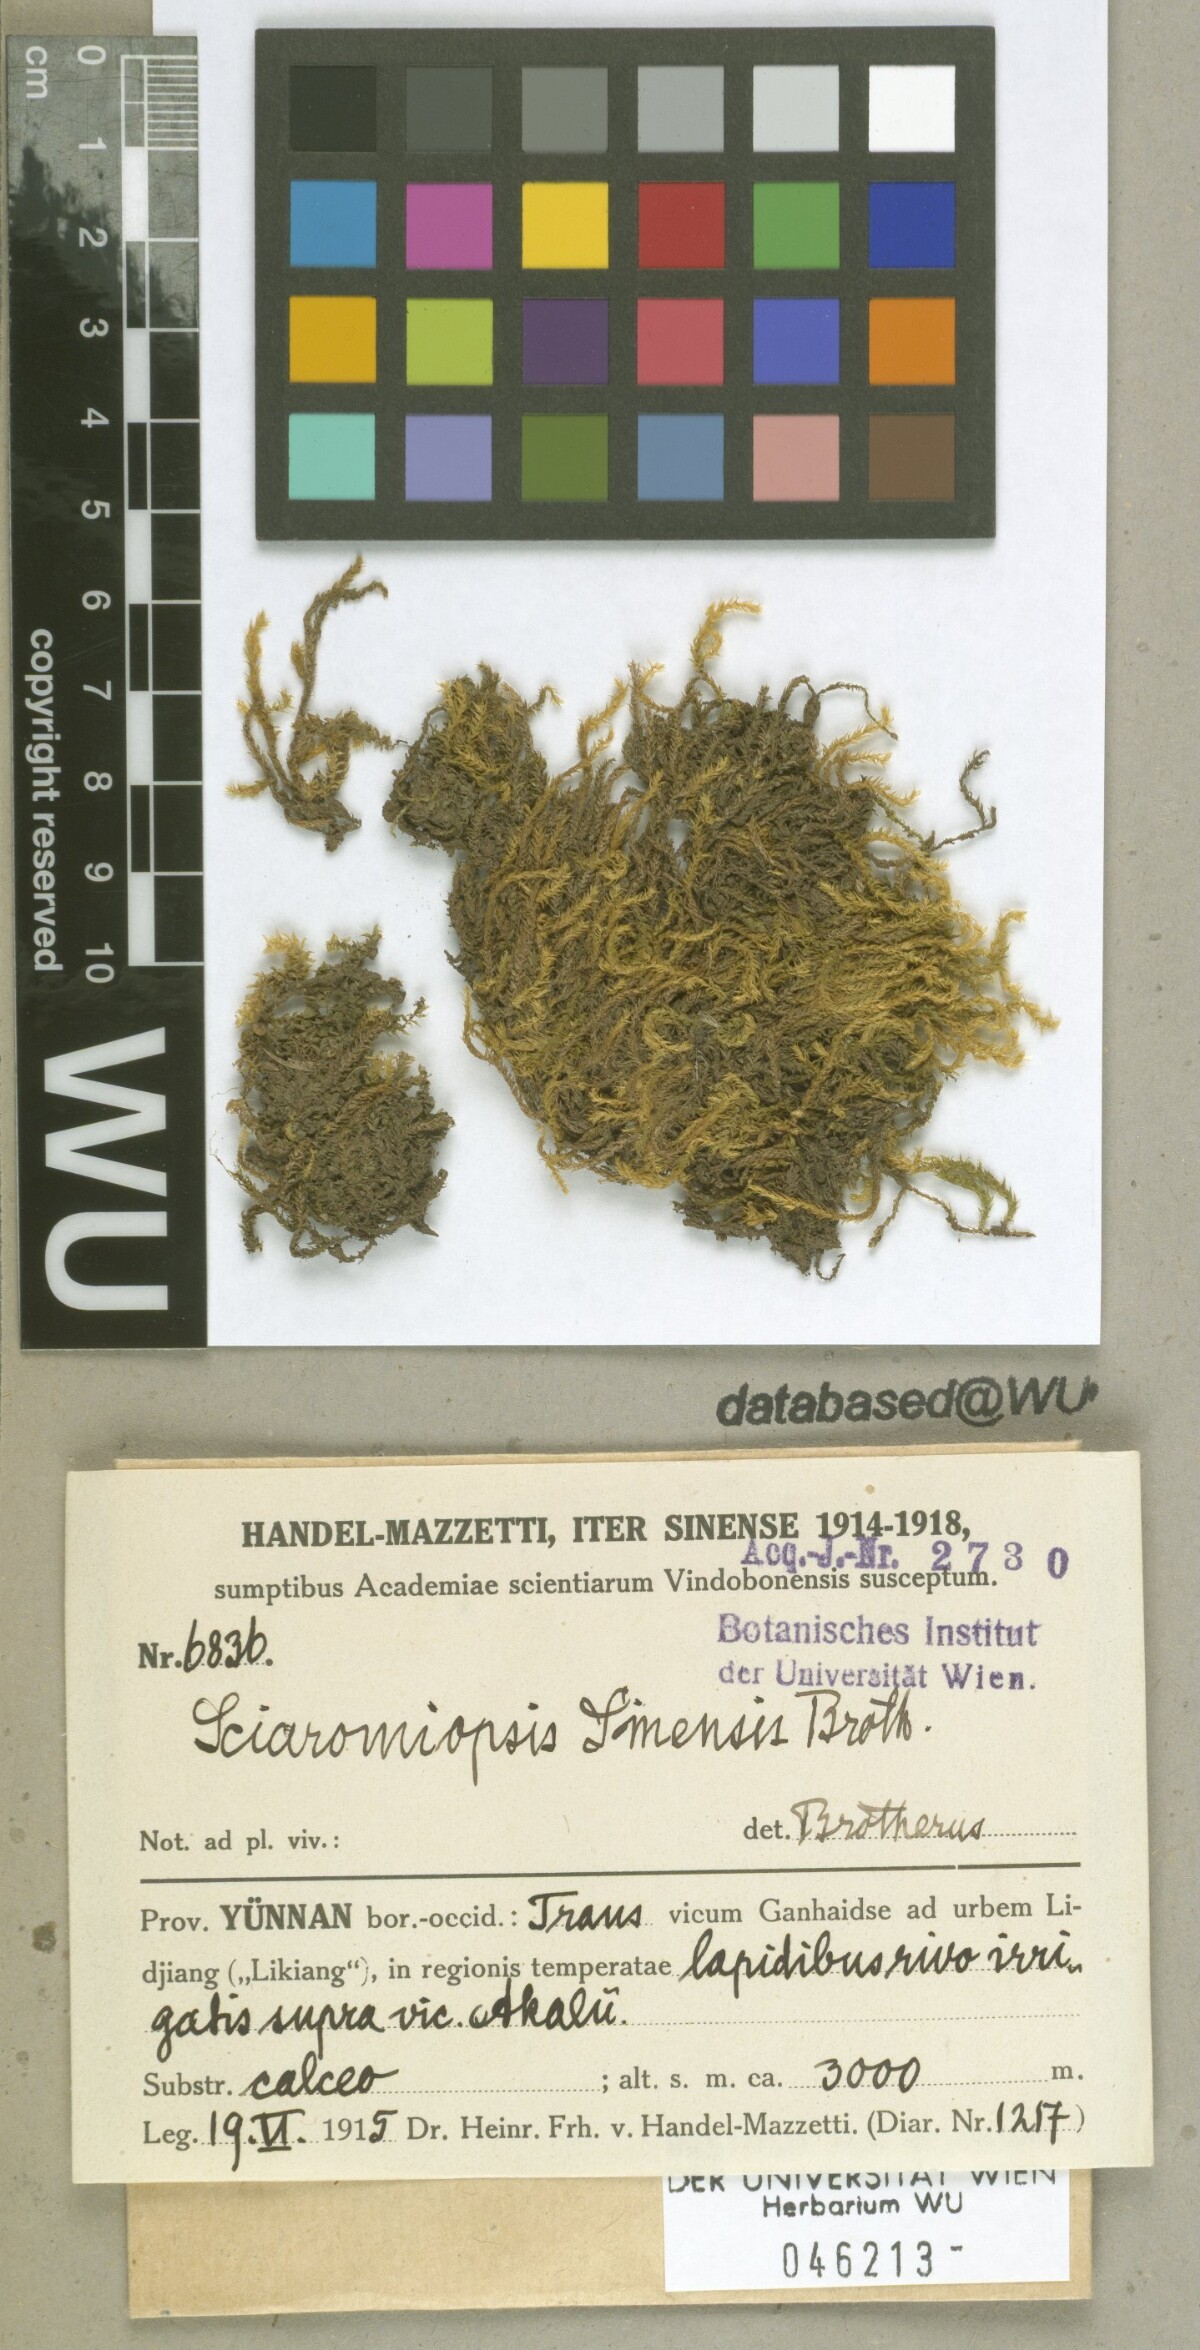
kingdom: Plantae
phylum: Bryophyta
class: Bryopsida
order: Hypnales
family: Brachytheciaceae
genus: Brachythecium
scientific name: Brachythecium sinense
